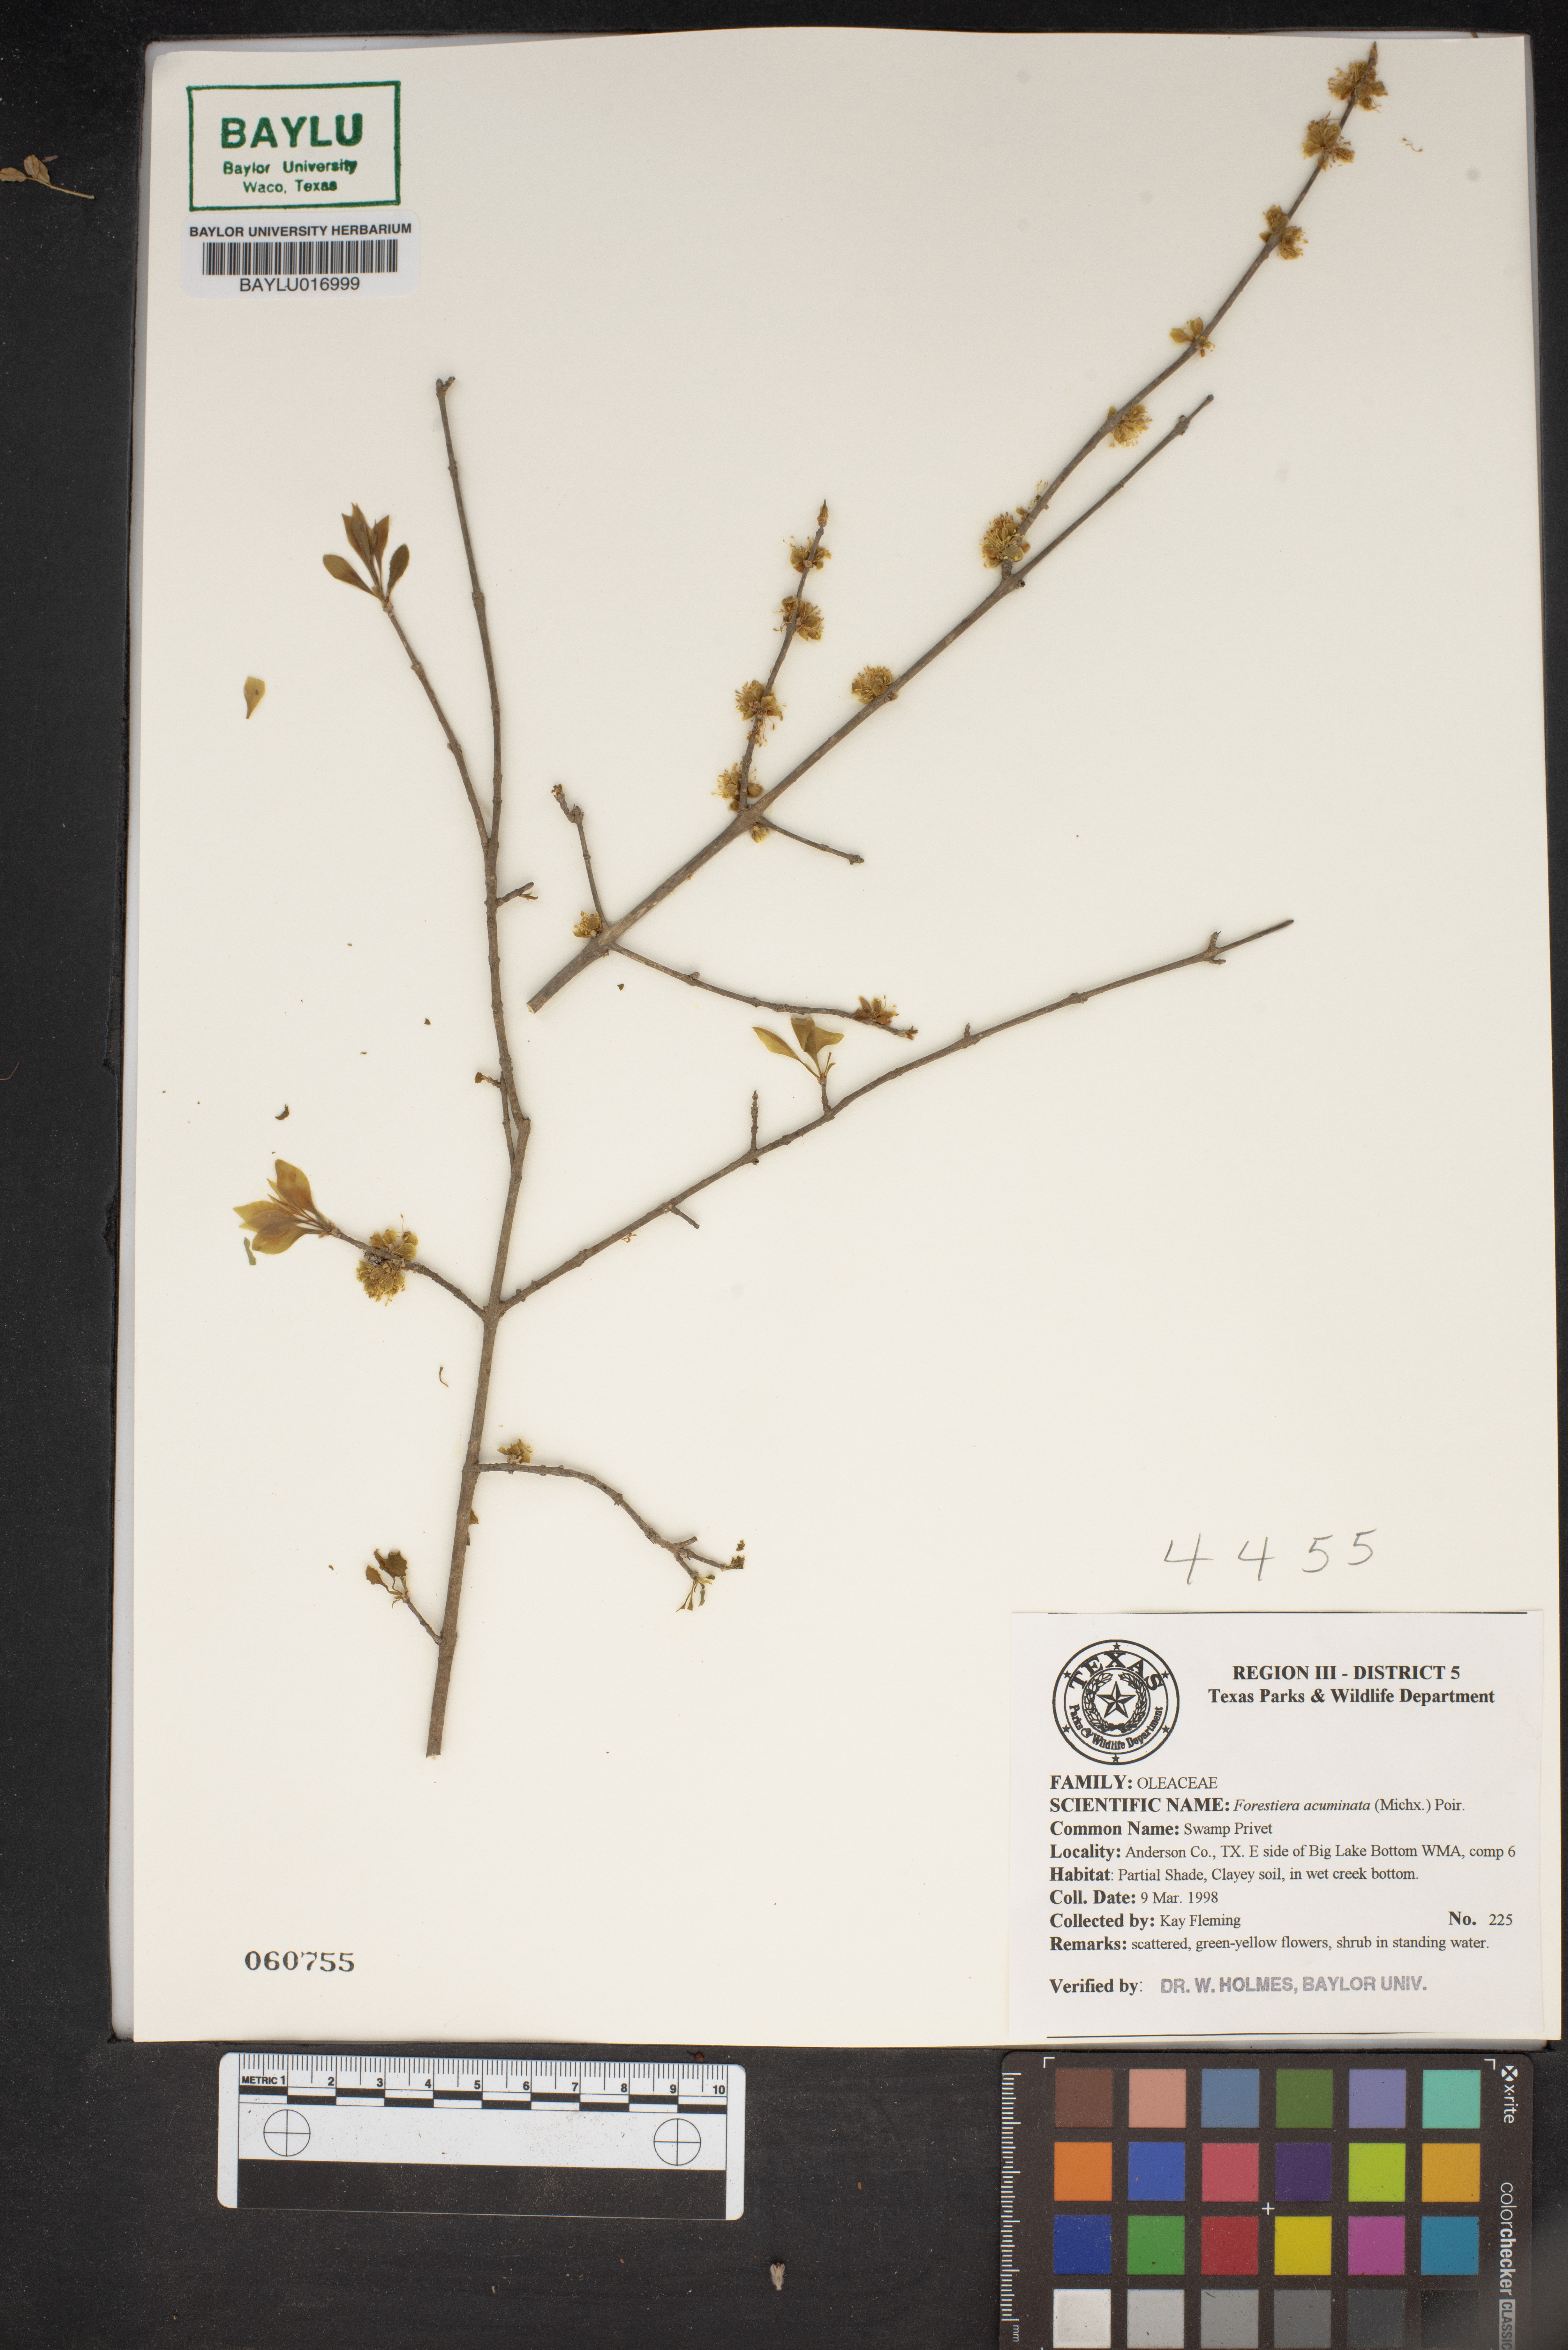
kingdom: Plantae
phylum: Tracheophyta
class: Magnoliopsida
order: Lamiales
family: Oleaceae
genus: Forestiera
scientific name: Forestiera acuminata
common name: Swamp-privet
